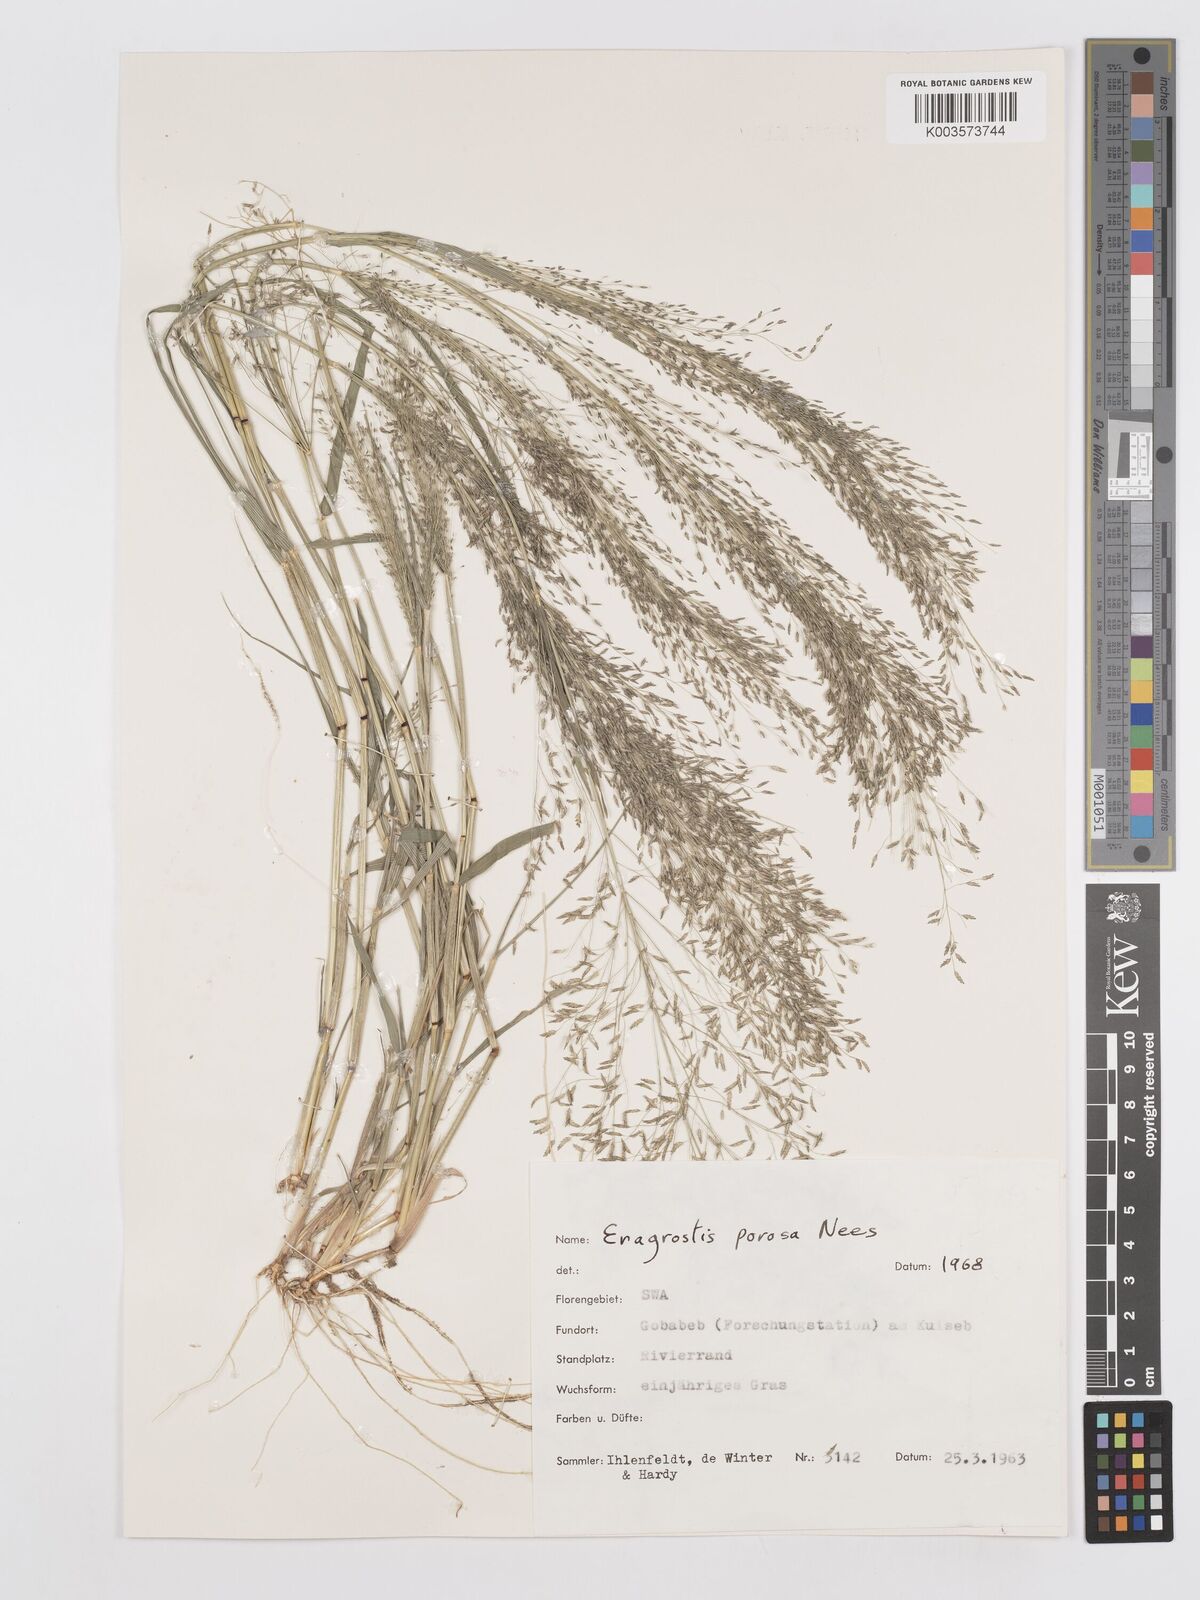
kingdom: Plantae
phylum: Tracheophyta
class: Liliopsida
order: Poales
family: Poaceae
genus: Eragrostis
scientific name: Eragrostis porosa
